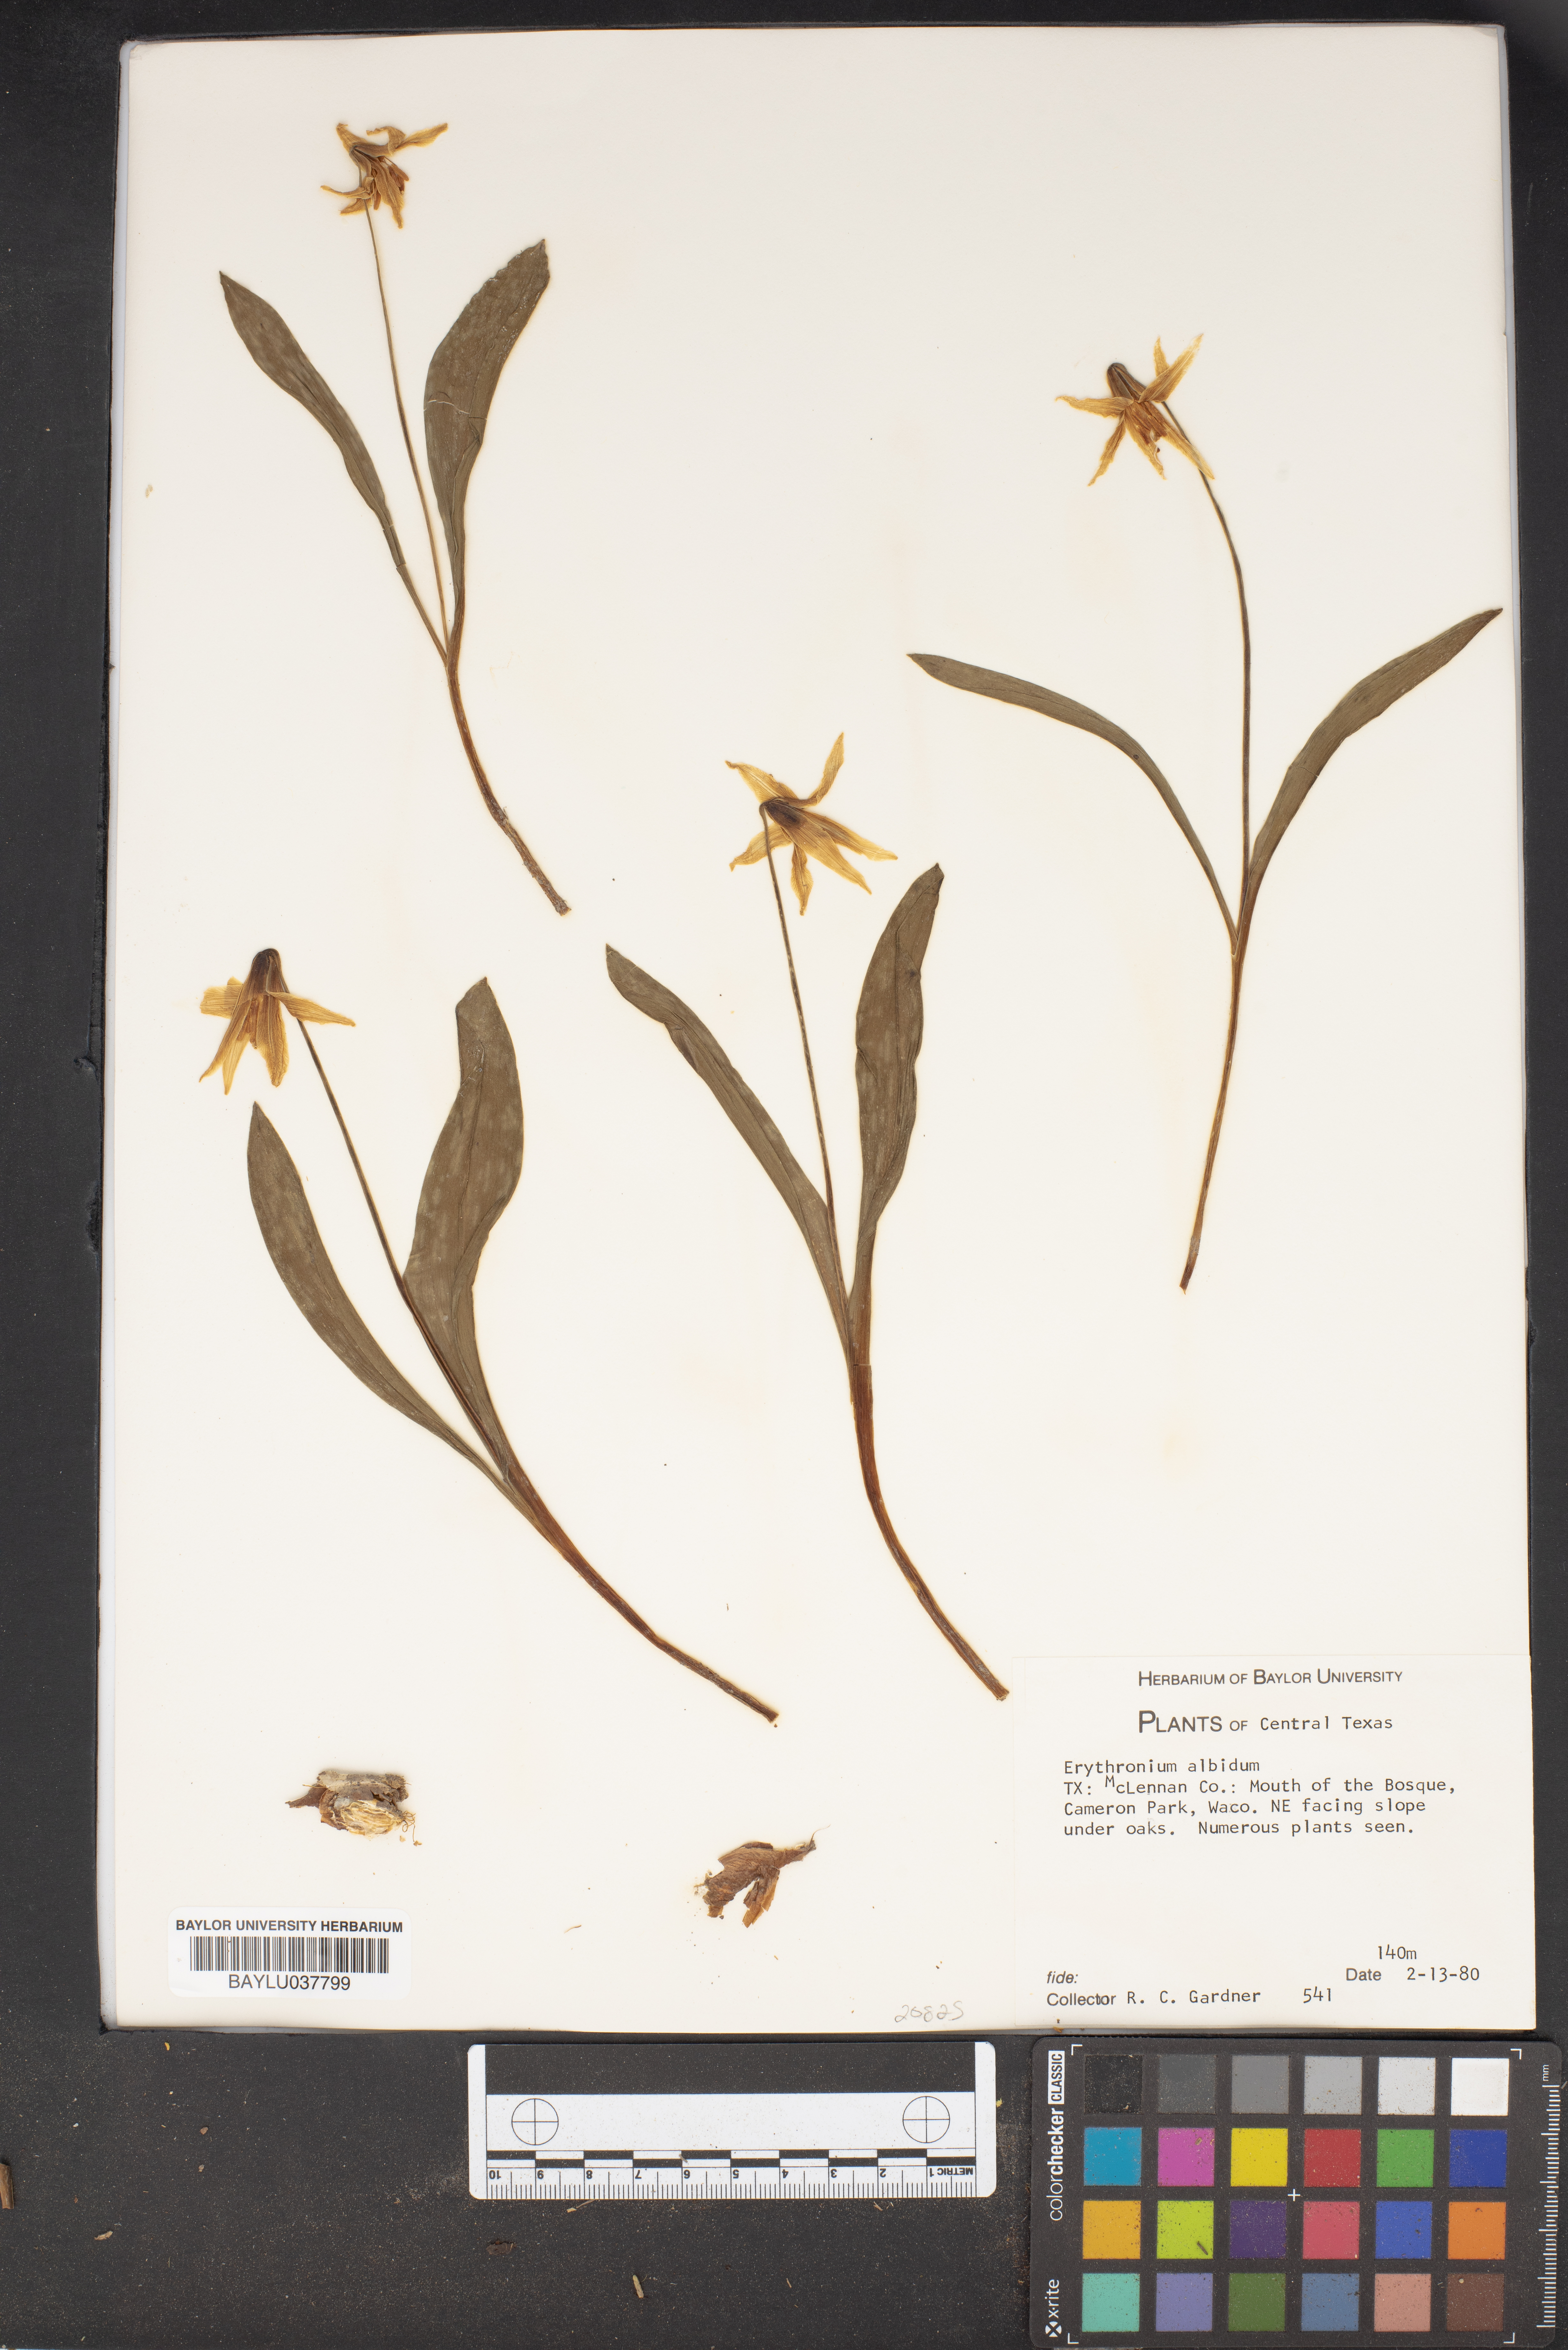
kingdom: Plantae
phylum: Tracheophyta
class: Liliopsida
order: Liliales
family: Liliaceae
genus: Erythronium
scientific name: Erythronium albidum
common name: White trout-lily
